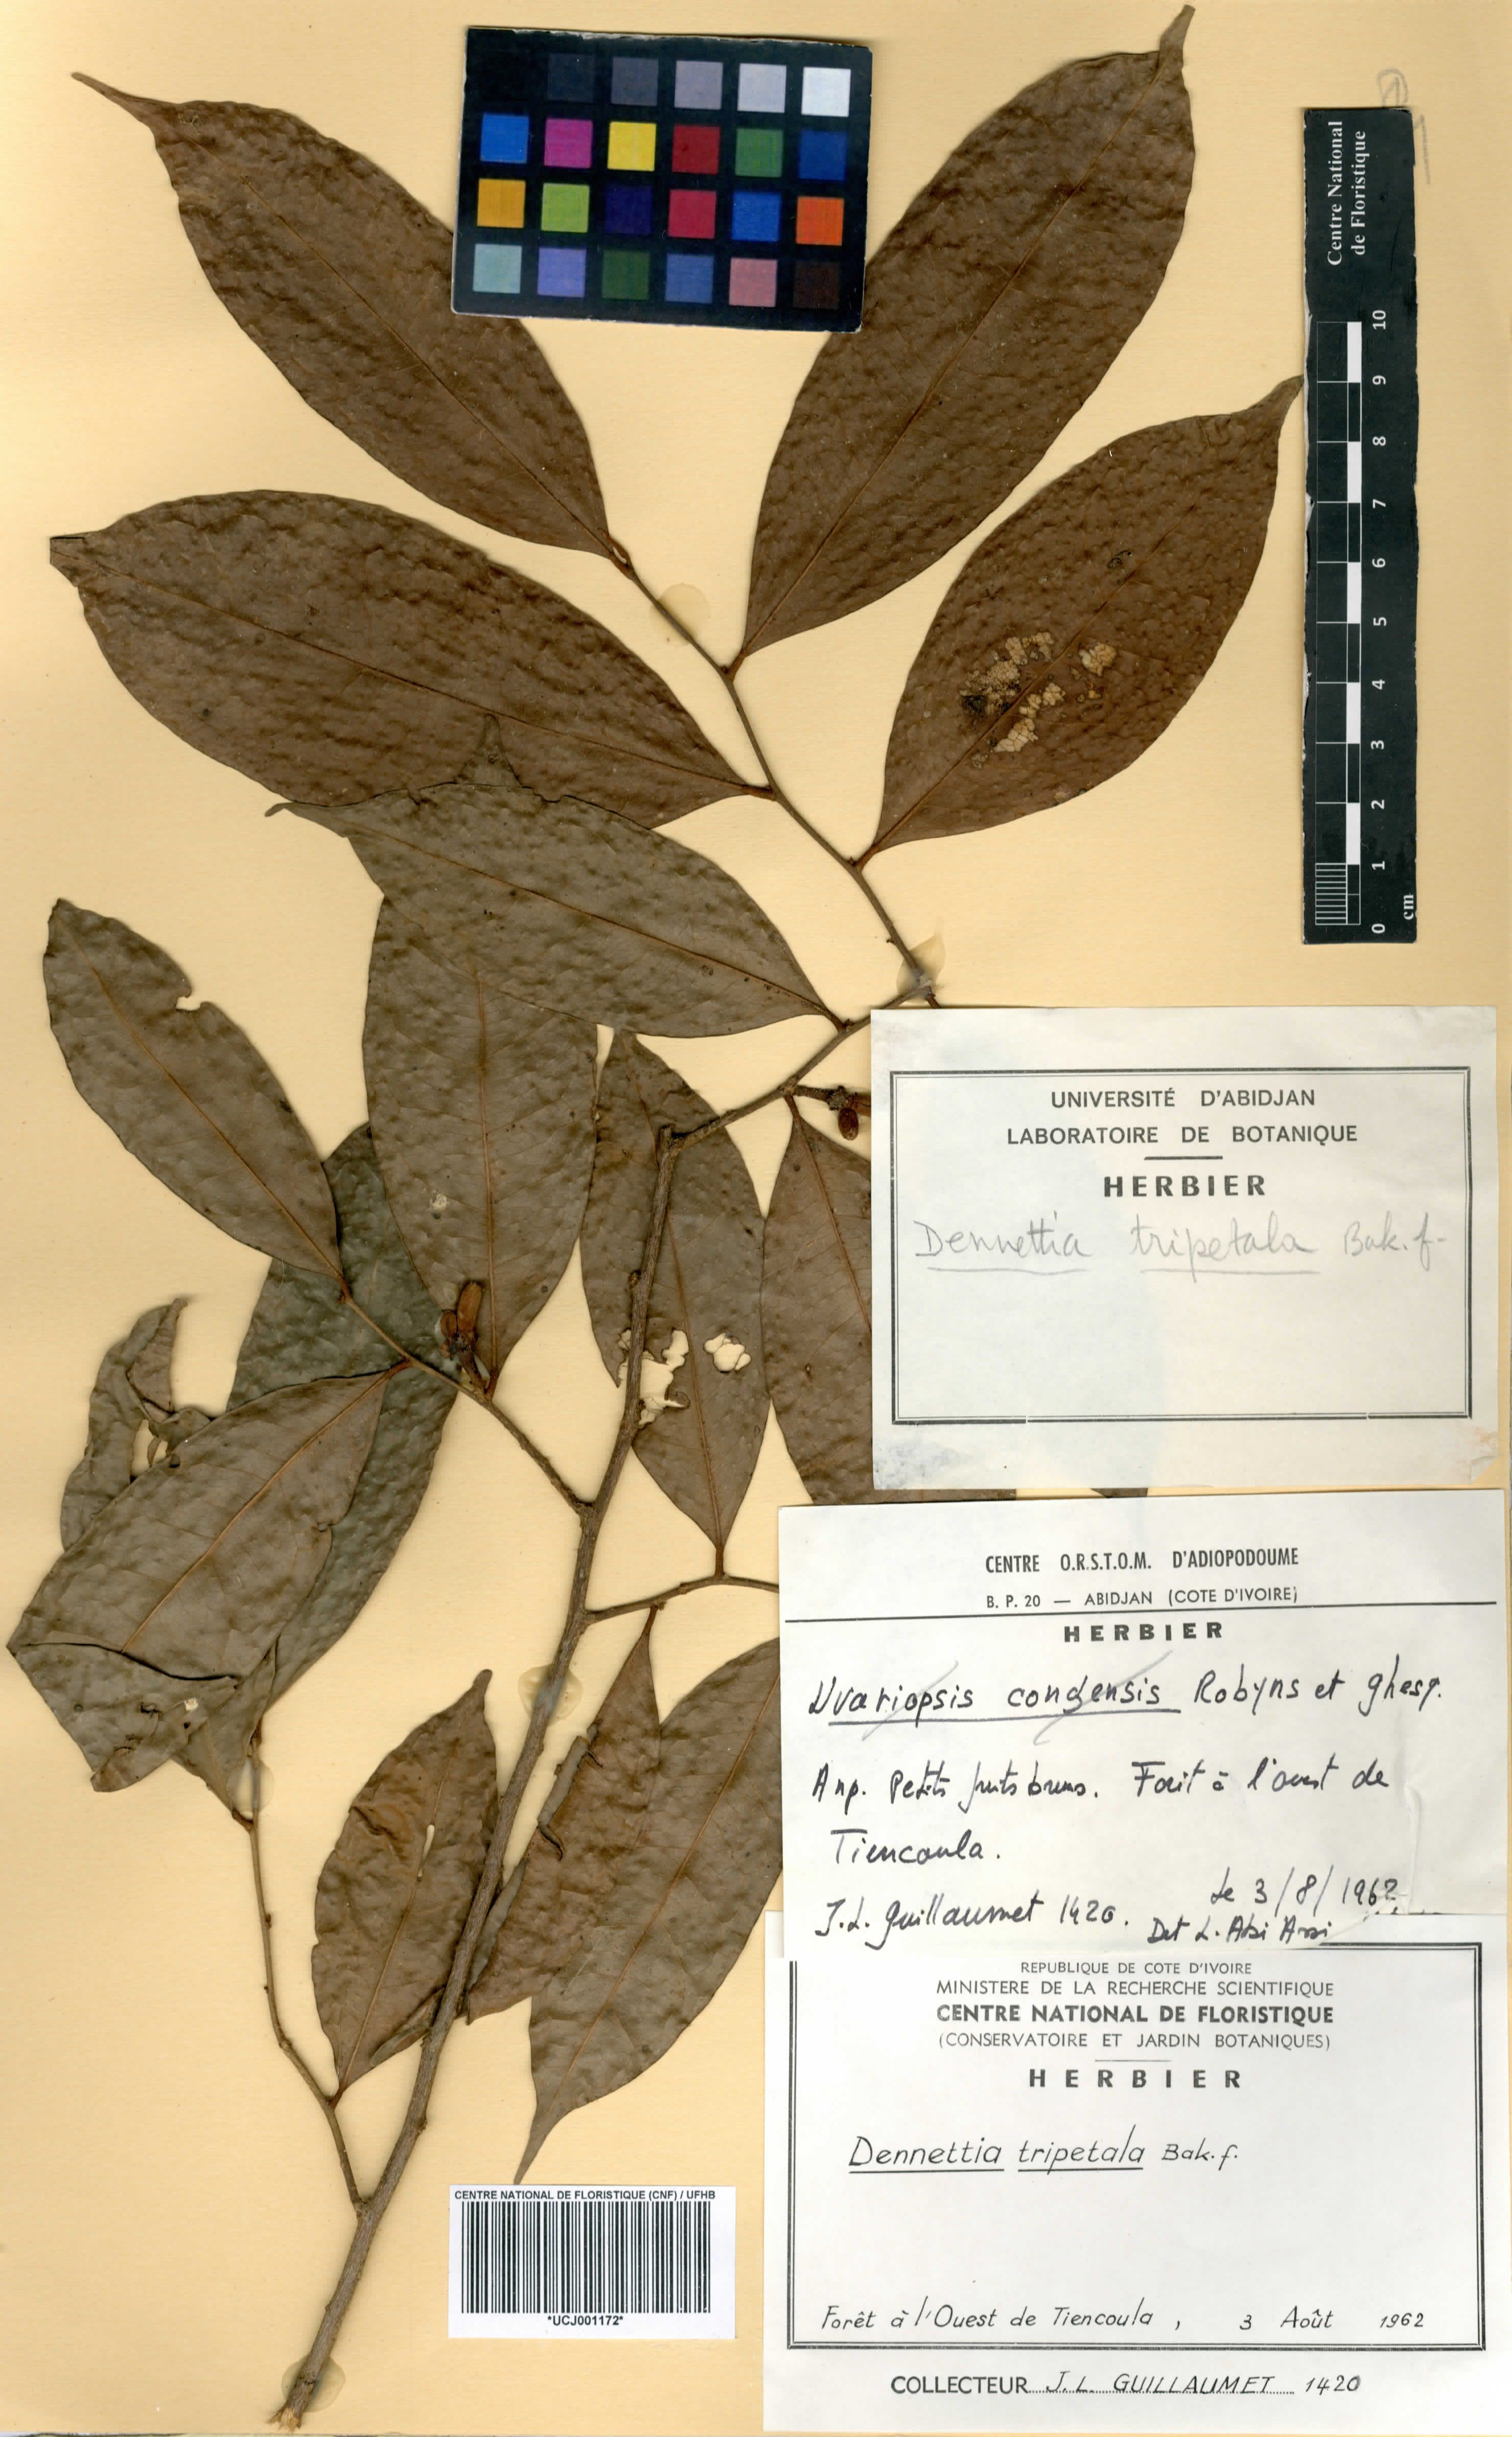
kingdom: Plantae
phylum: Tracheophyta
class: Magnoliopsida
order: Magnoliales
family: Annonaceae
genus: Uvariopsis
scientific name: Uvariopsis tripetala
